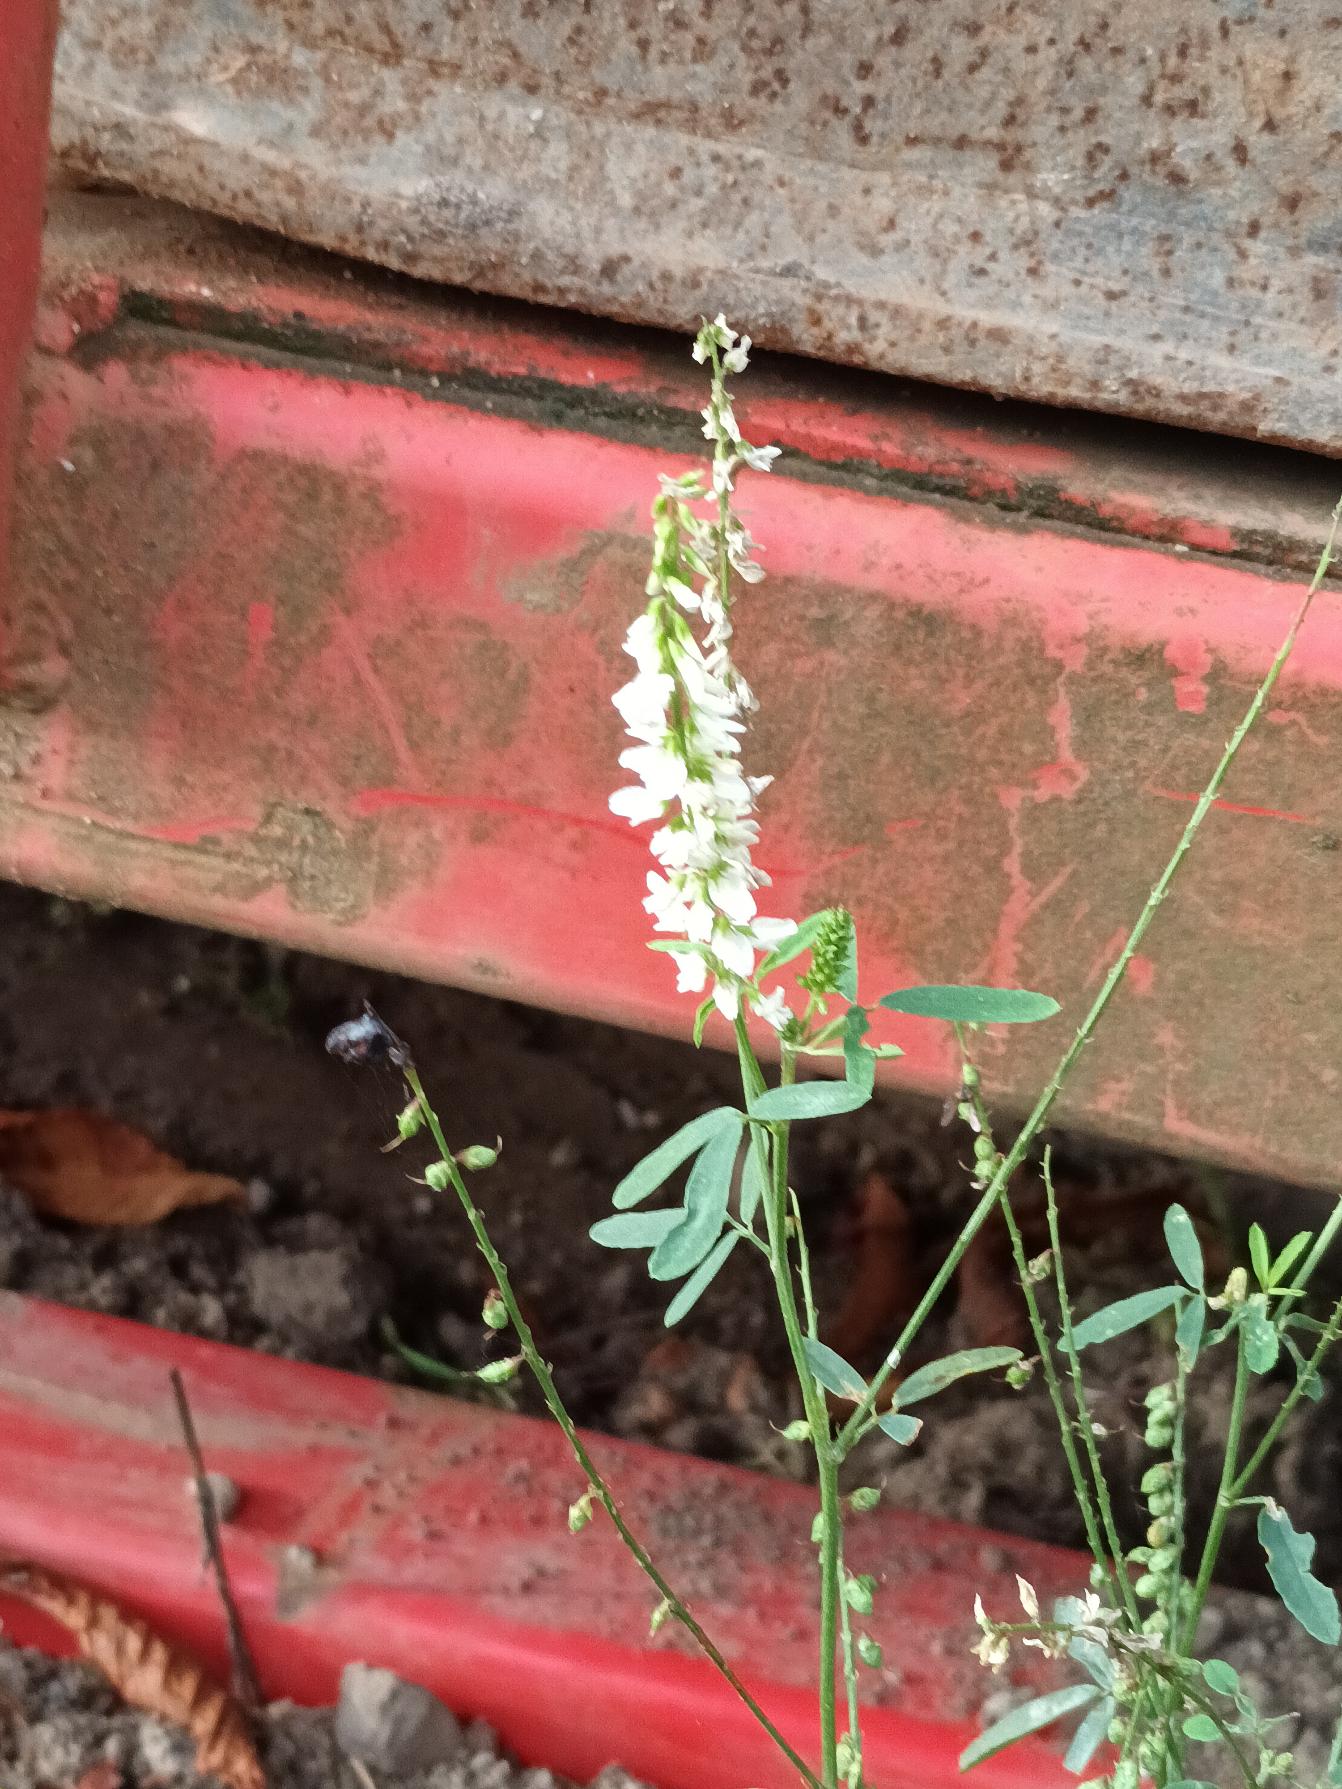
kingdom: Plantae
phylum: Tracheophyta
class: Magnoliopsida
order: Fabales
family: Fabaceae
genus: Melilotus
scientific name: Melilotus albus
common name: Hvid stenkløver
